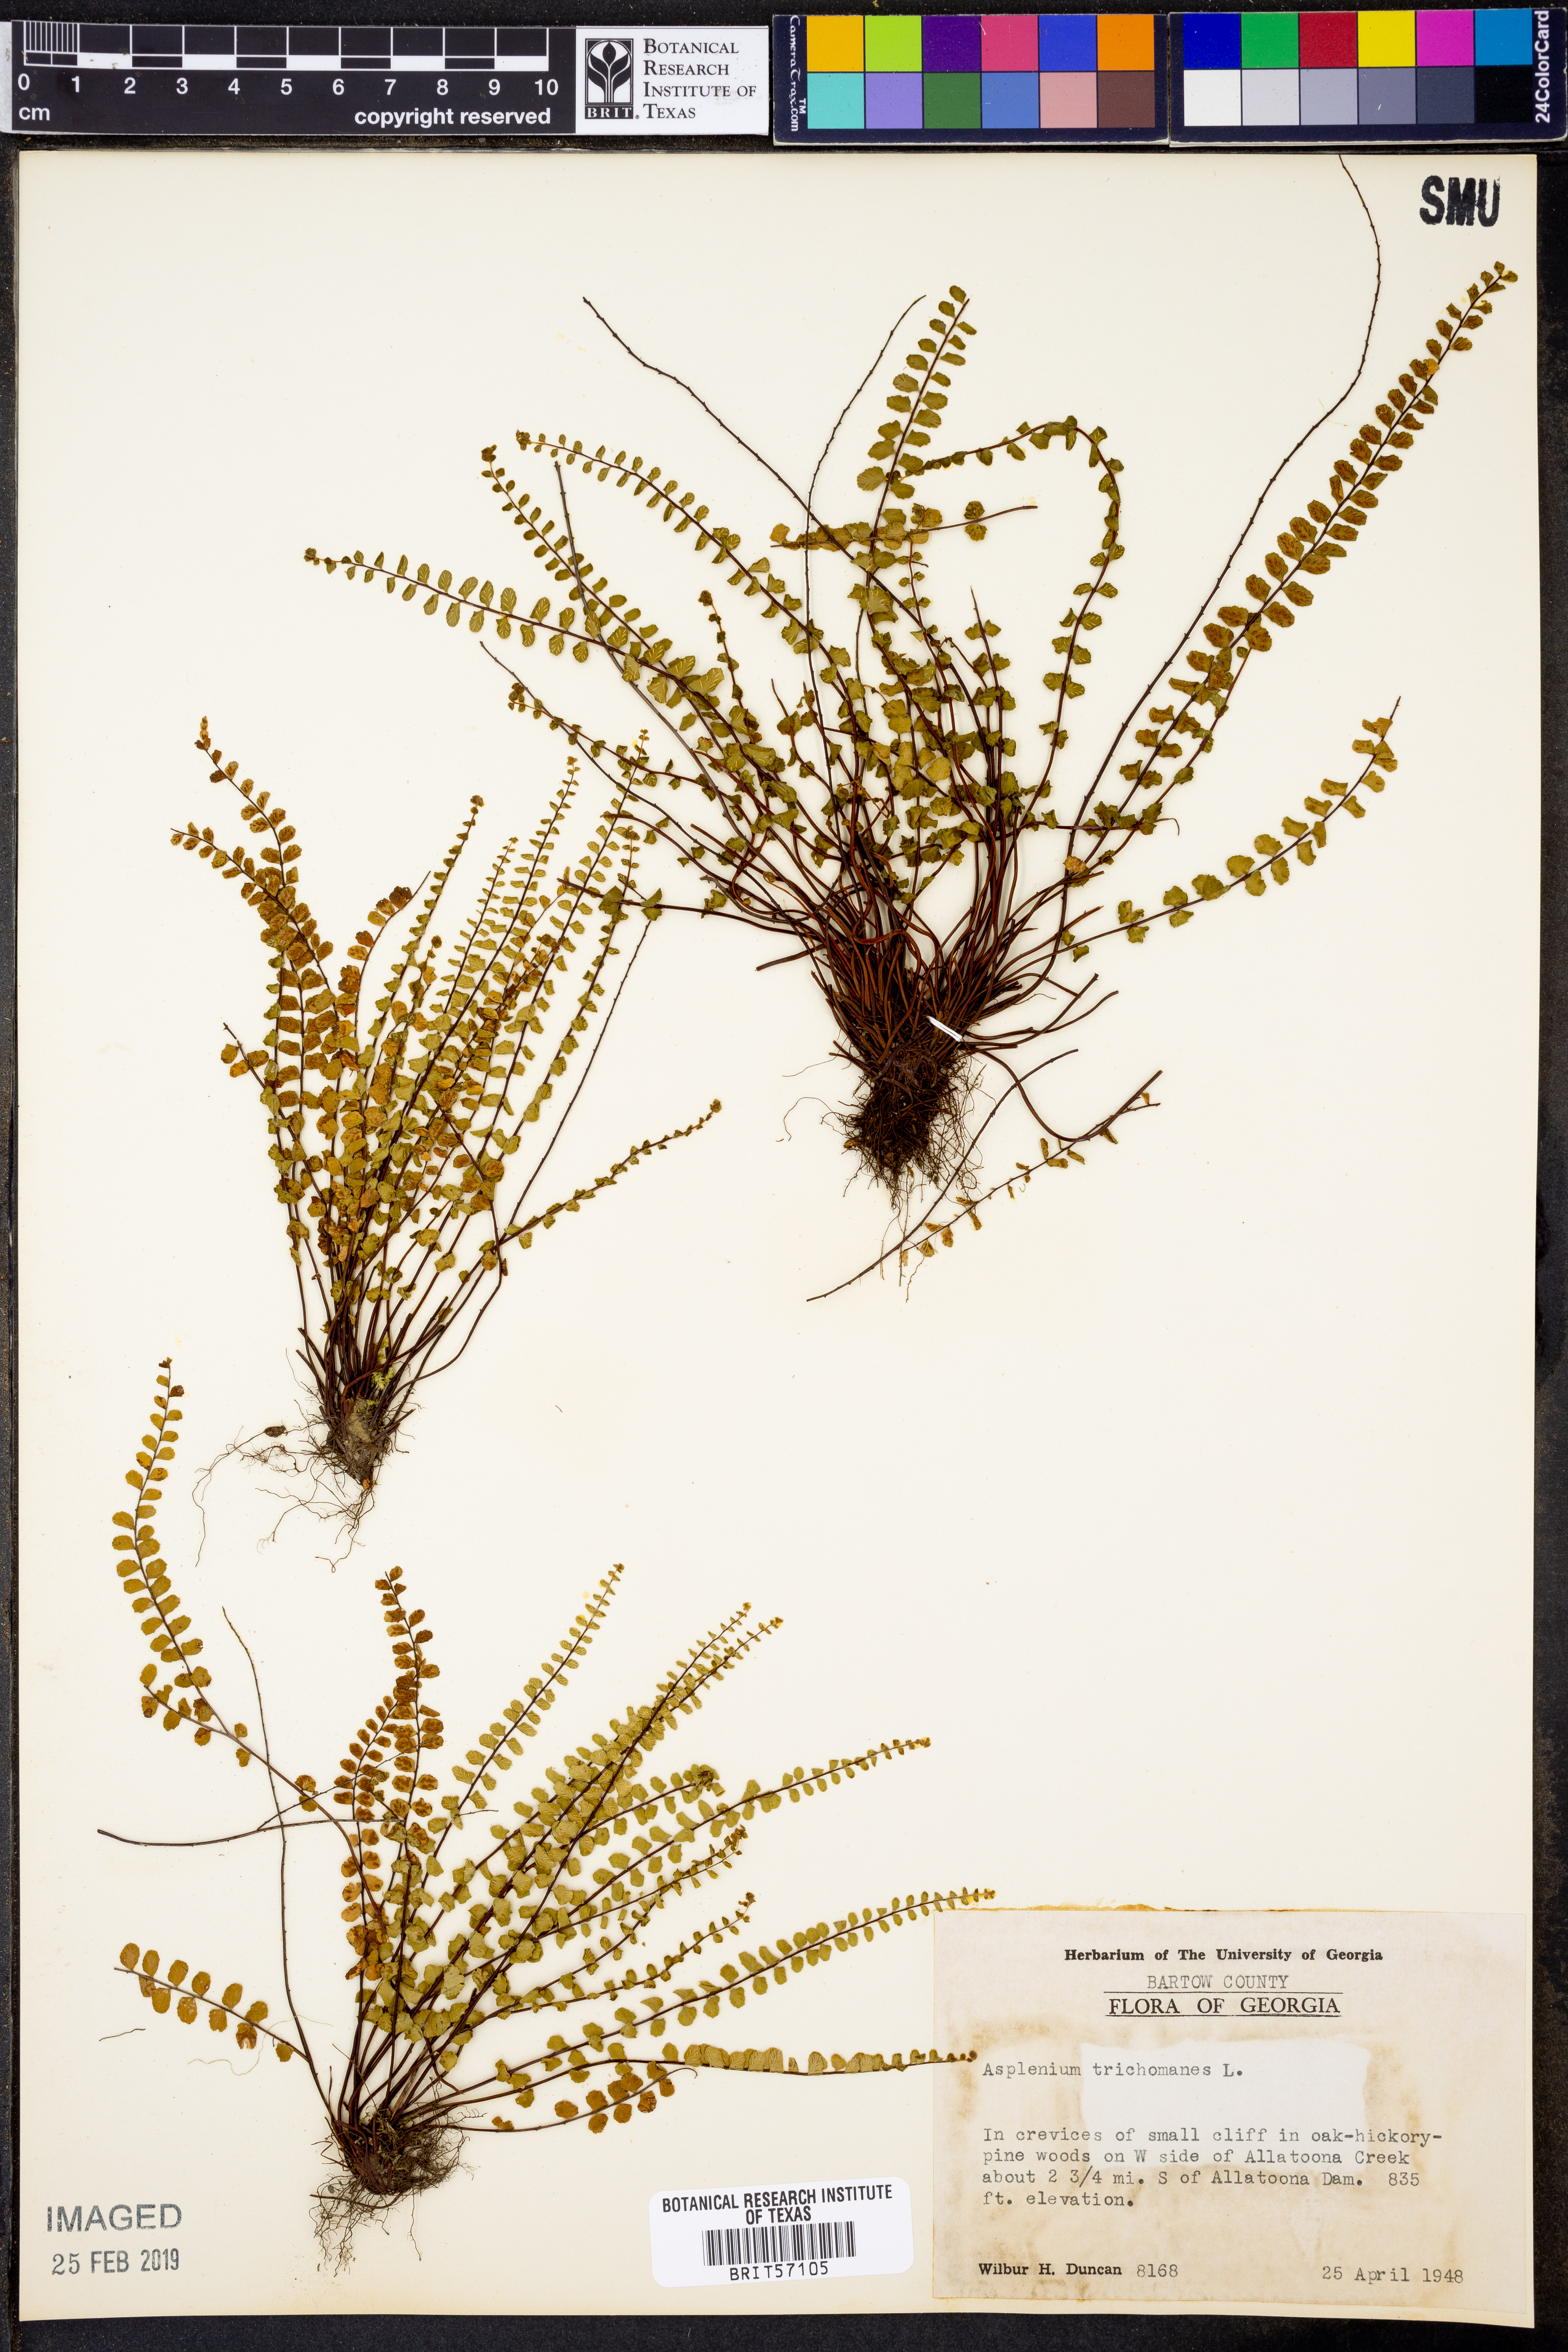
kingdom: Plantae
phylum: Tracheophyta
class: Polypodiopsida
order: Polypodiales
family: Aspleniaceae
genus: Asplenium
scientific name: Asplenium trichomanes
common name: Maidenhair spleenwort
